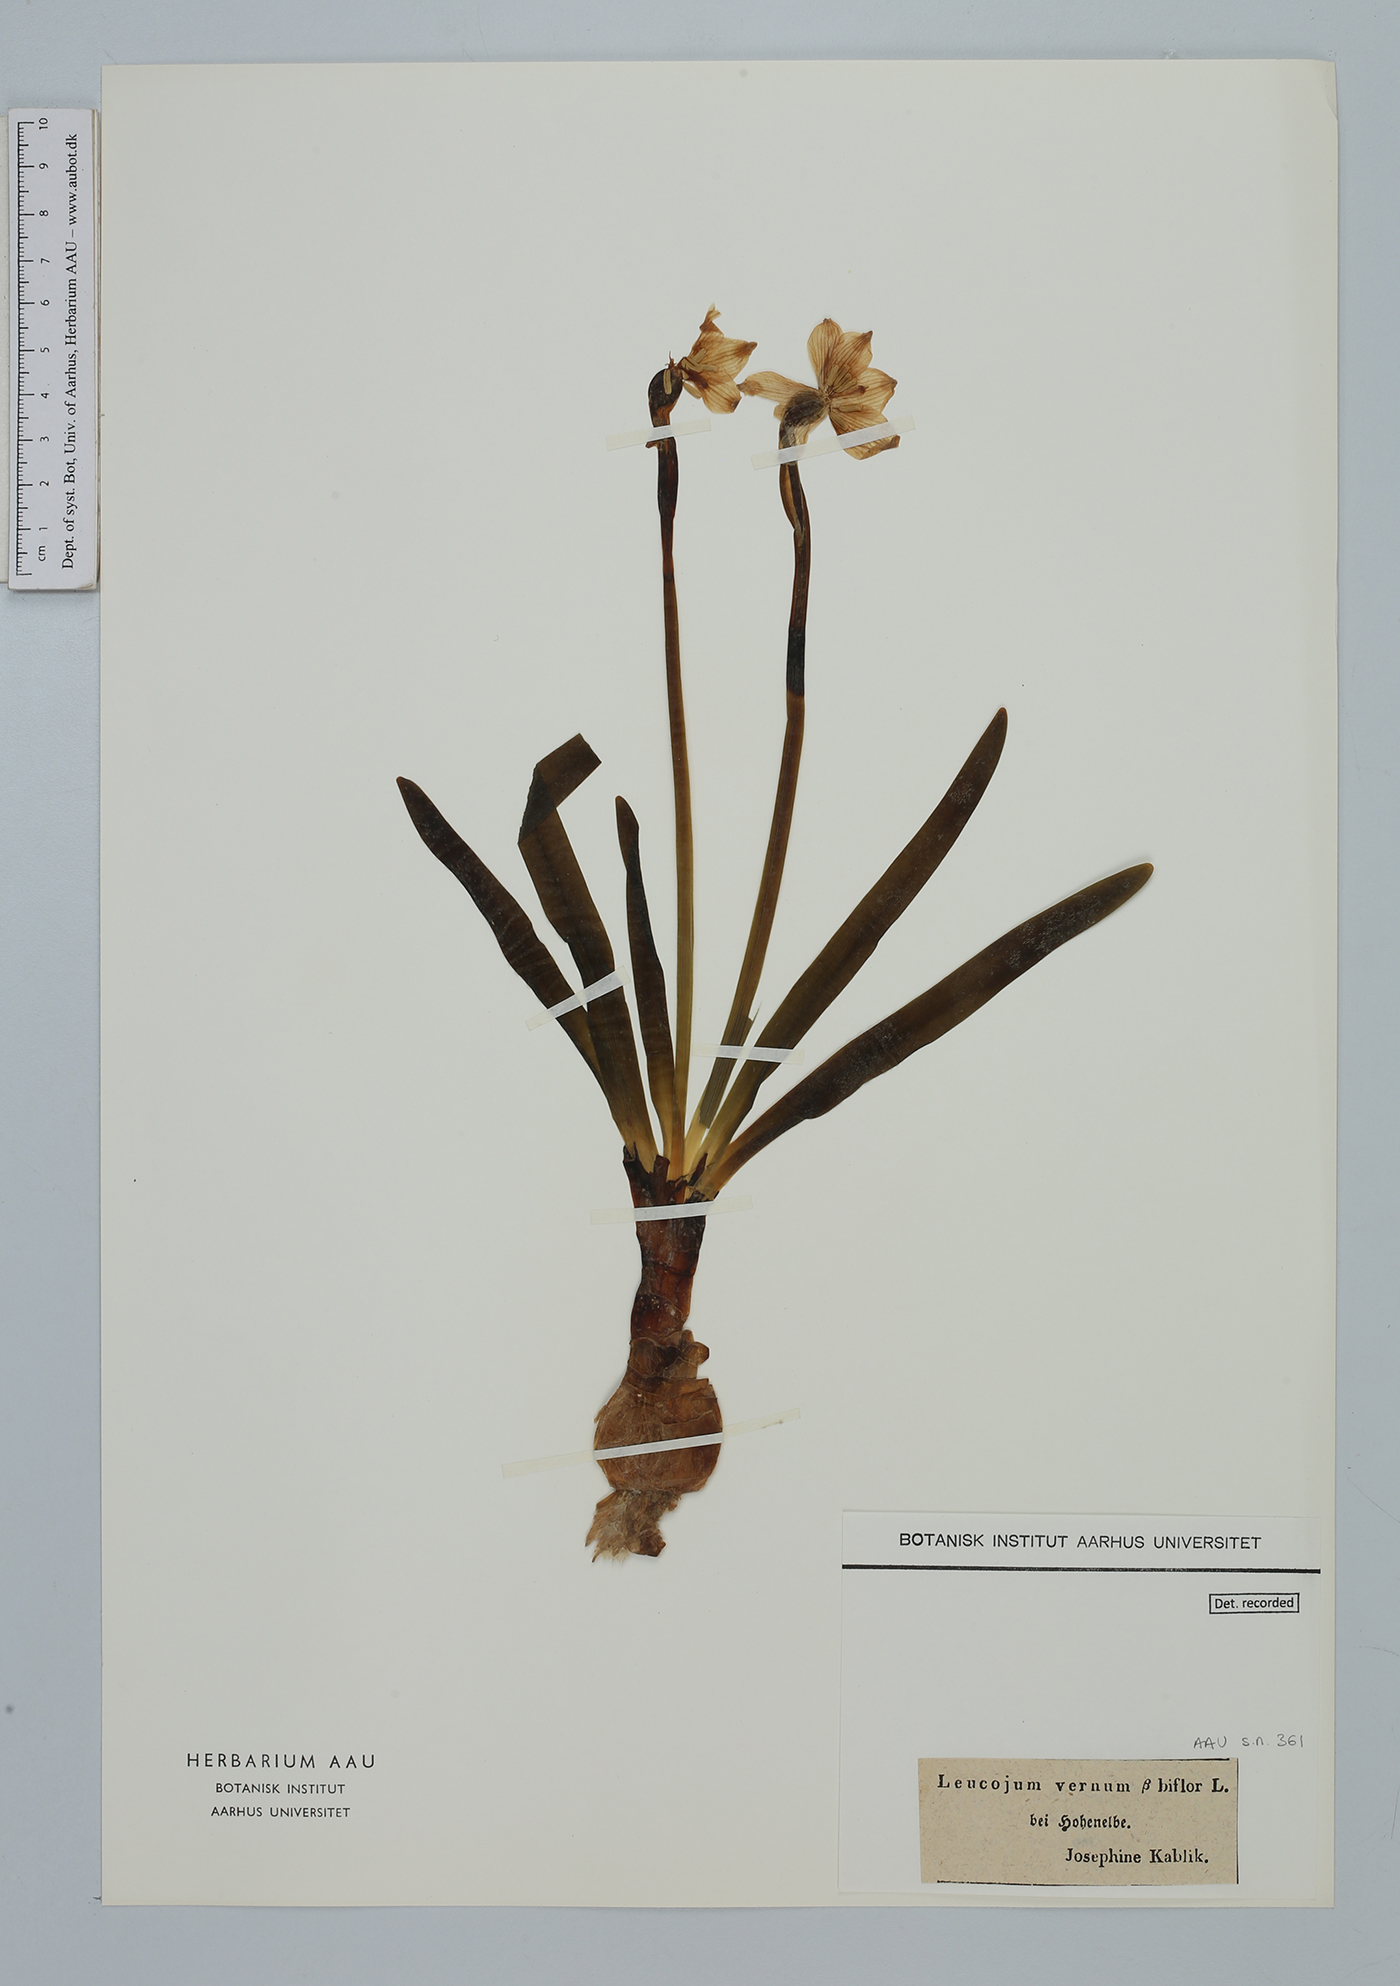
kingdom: Plantae
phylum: Tracheophyta
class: Liliopsida
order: Asparagales
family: Amaryllidaceae
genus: Leucojum
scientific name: Leucojum vernum
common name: Spring snowflake
